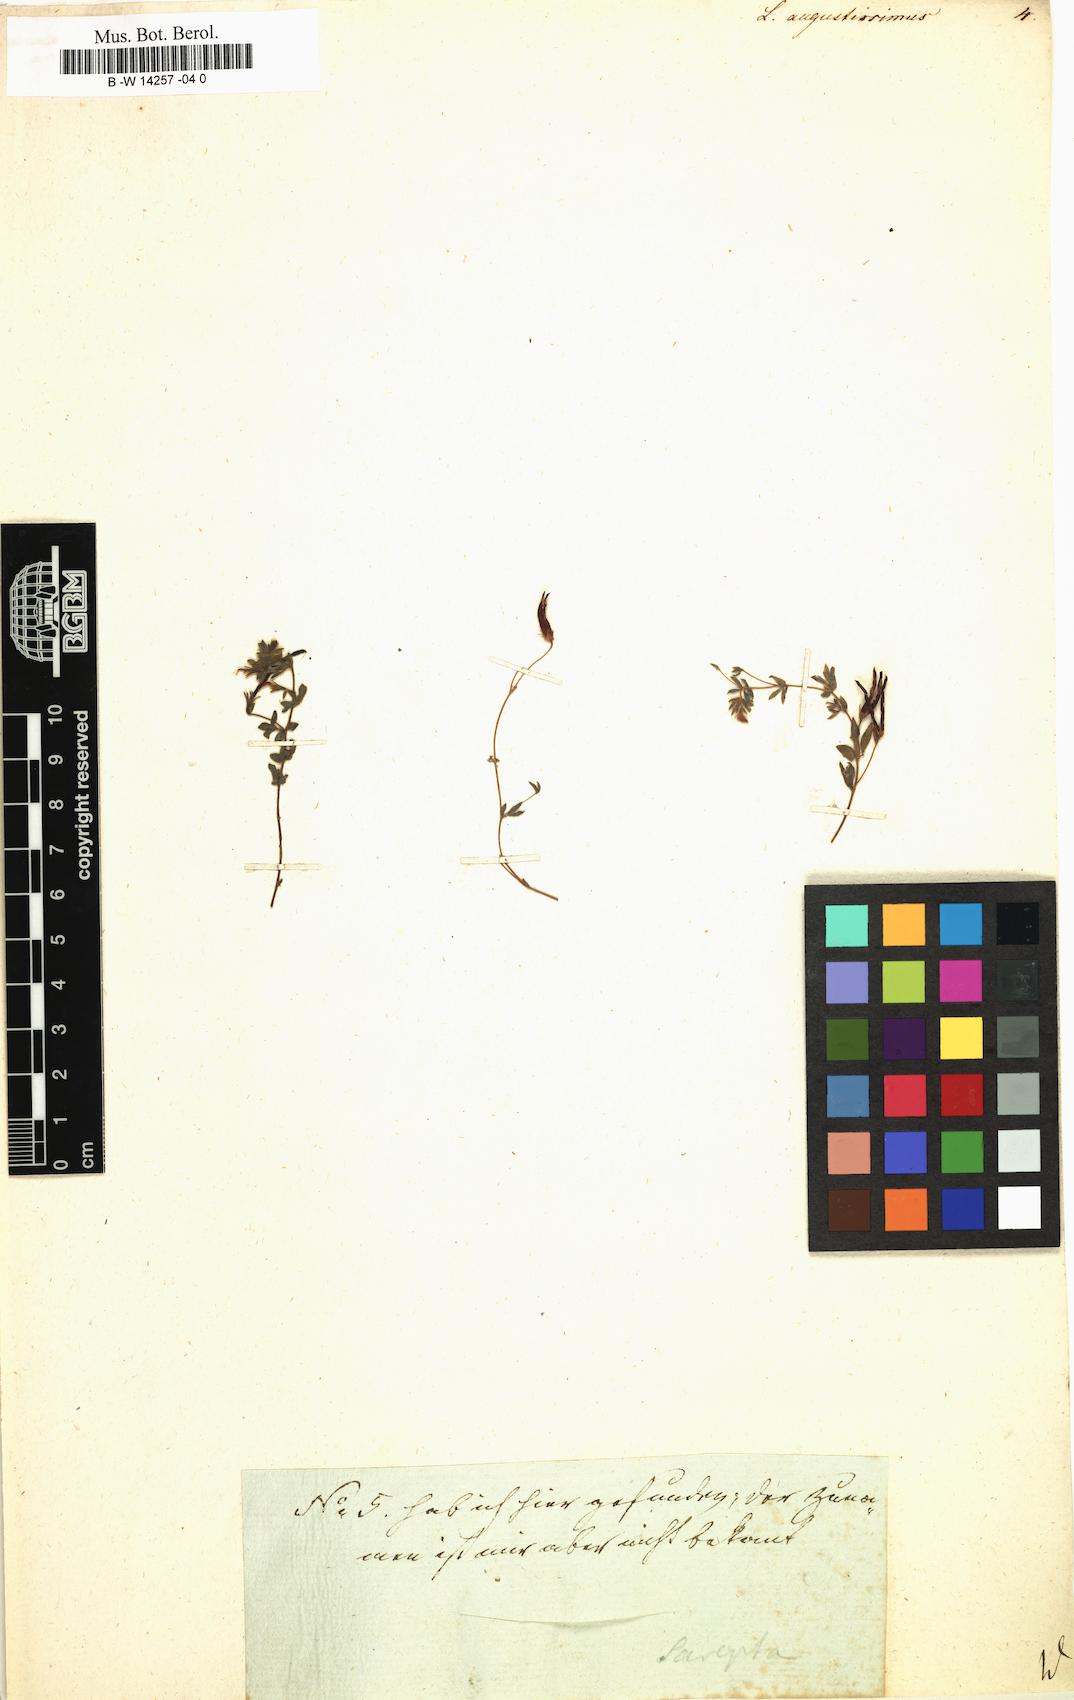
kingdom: Plantae
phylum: Tracheophyta
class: Magnoliopsida
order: Fabales
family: Fabaceae
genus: Lotus
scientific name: Lotus angustissimus
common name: Slender bird's-foot trefoil
